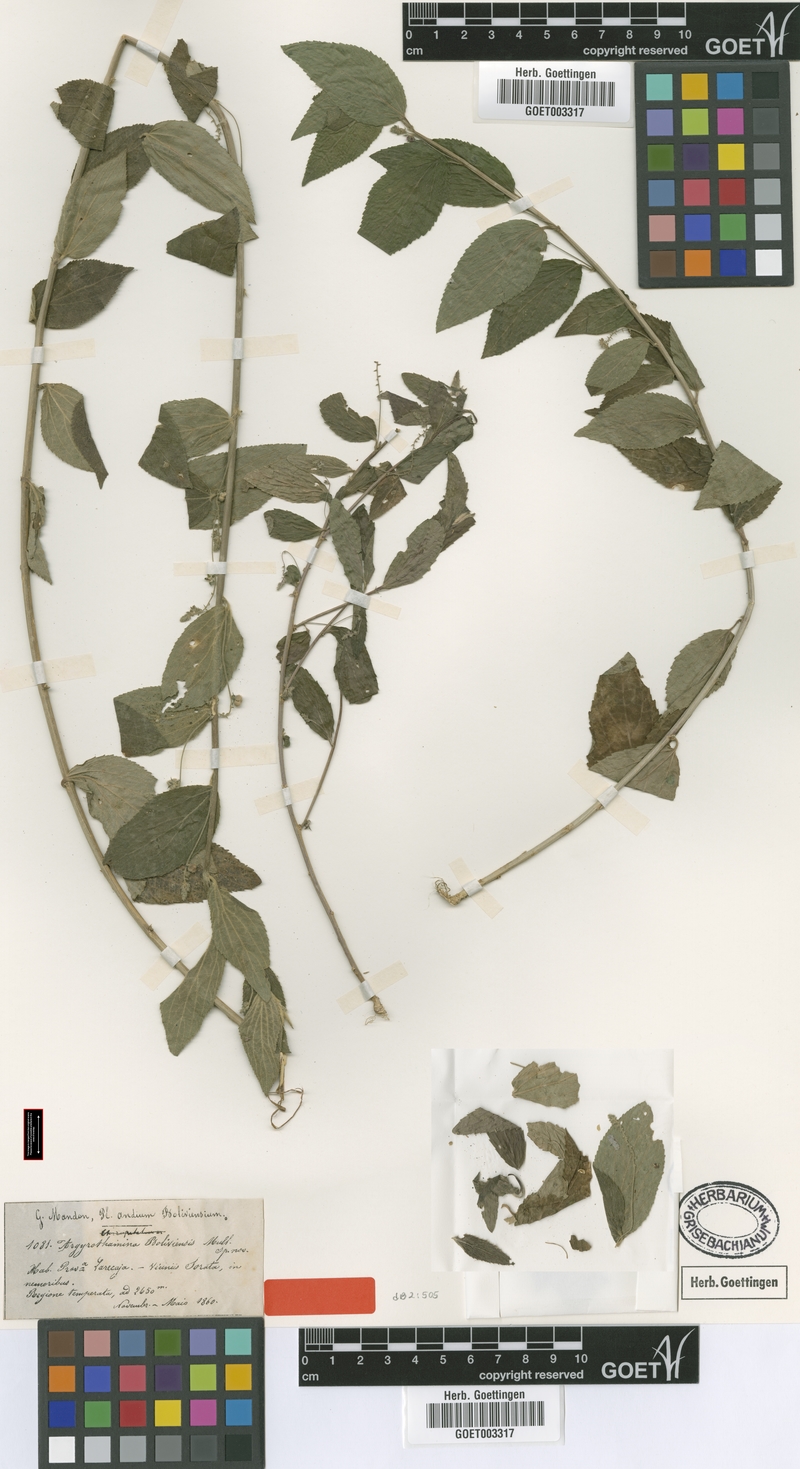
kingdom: Plantae
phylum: Tracheophyta
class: Magnoliopsida
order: Malpighiales
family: Euphorbiaceae
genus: Chiropetalum
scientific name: Chiropetalum boliviense
